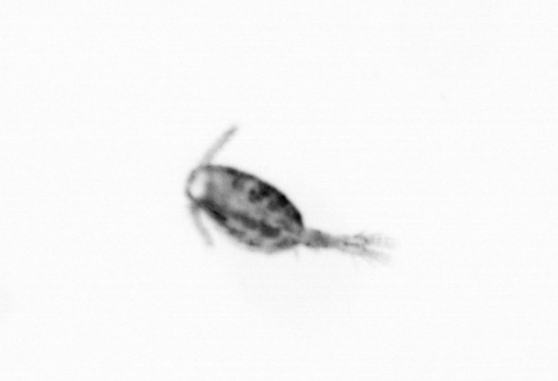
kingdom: Animalia
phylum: Arthropoda
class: Copepoda
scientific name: Copepoda
